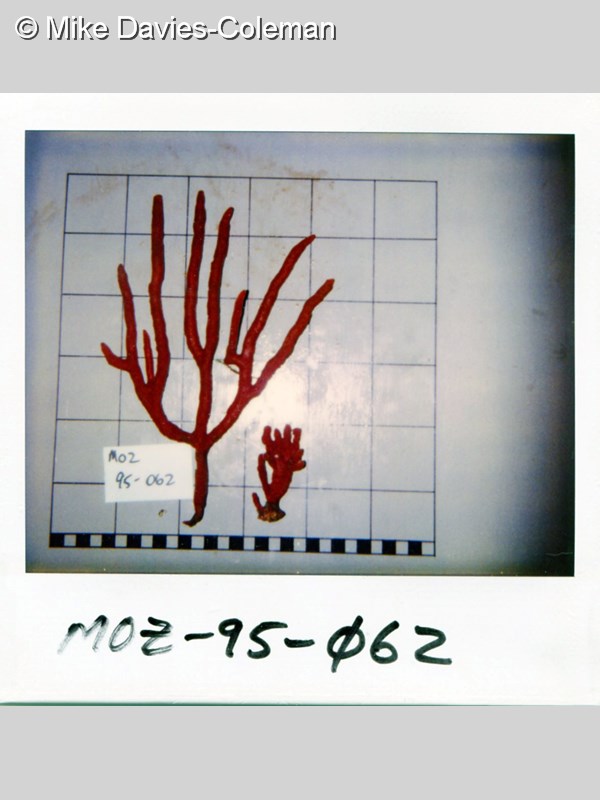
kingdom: Animalia
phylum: Porifera
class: Demospongiae
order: Axinellida
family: Axinellidae
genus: Axinella
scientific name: Axinella
